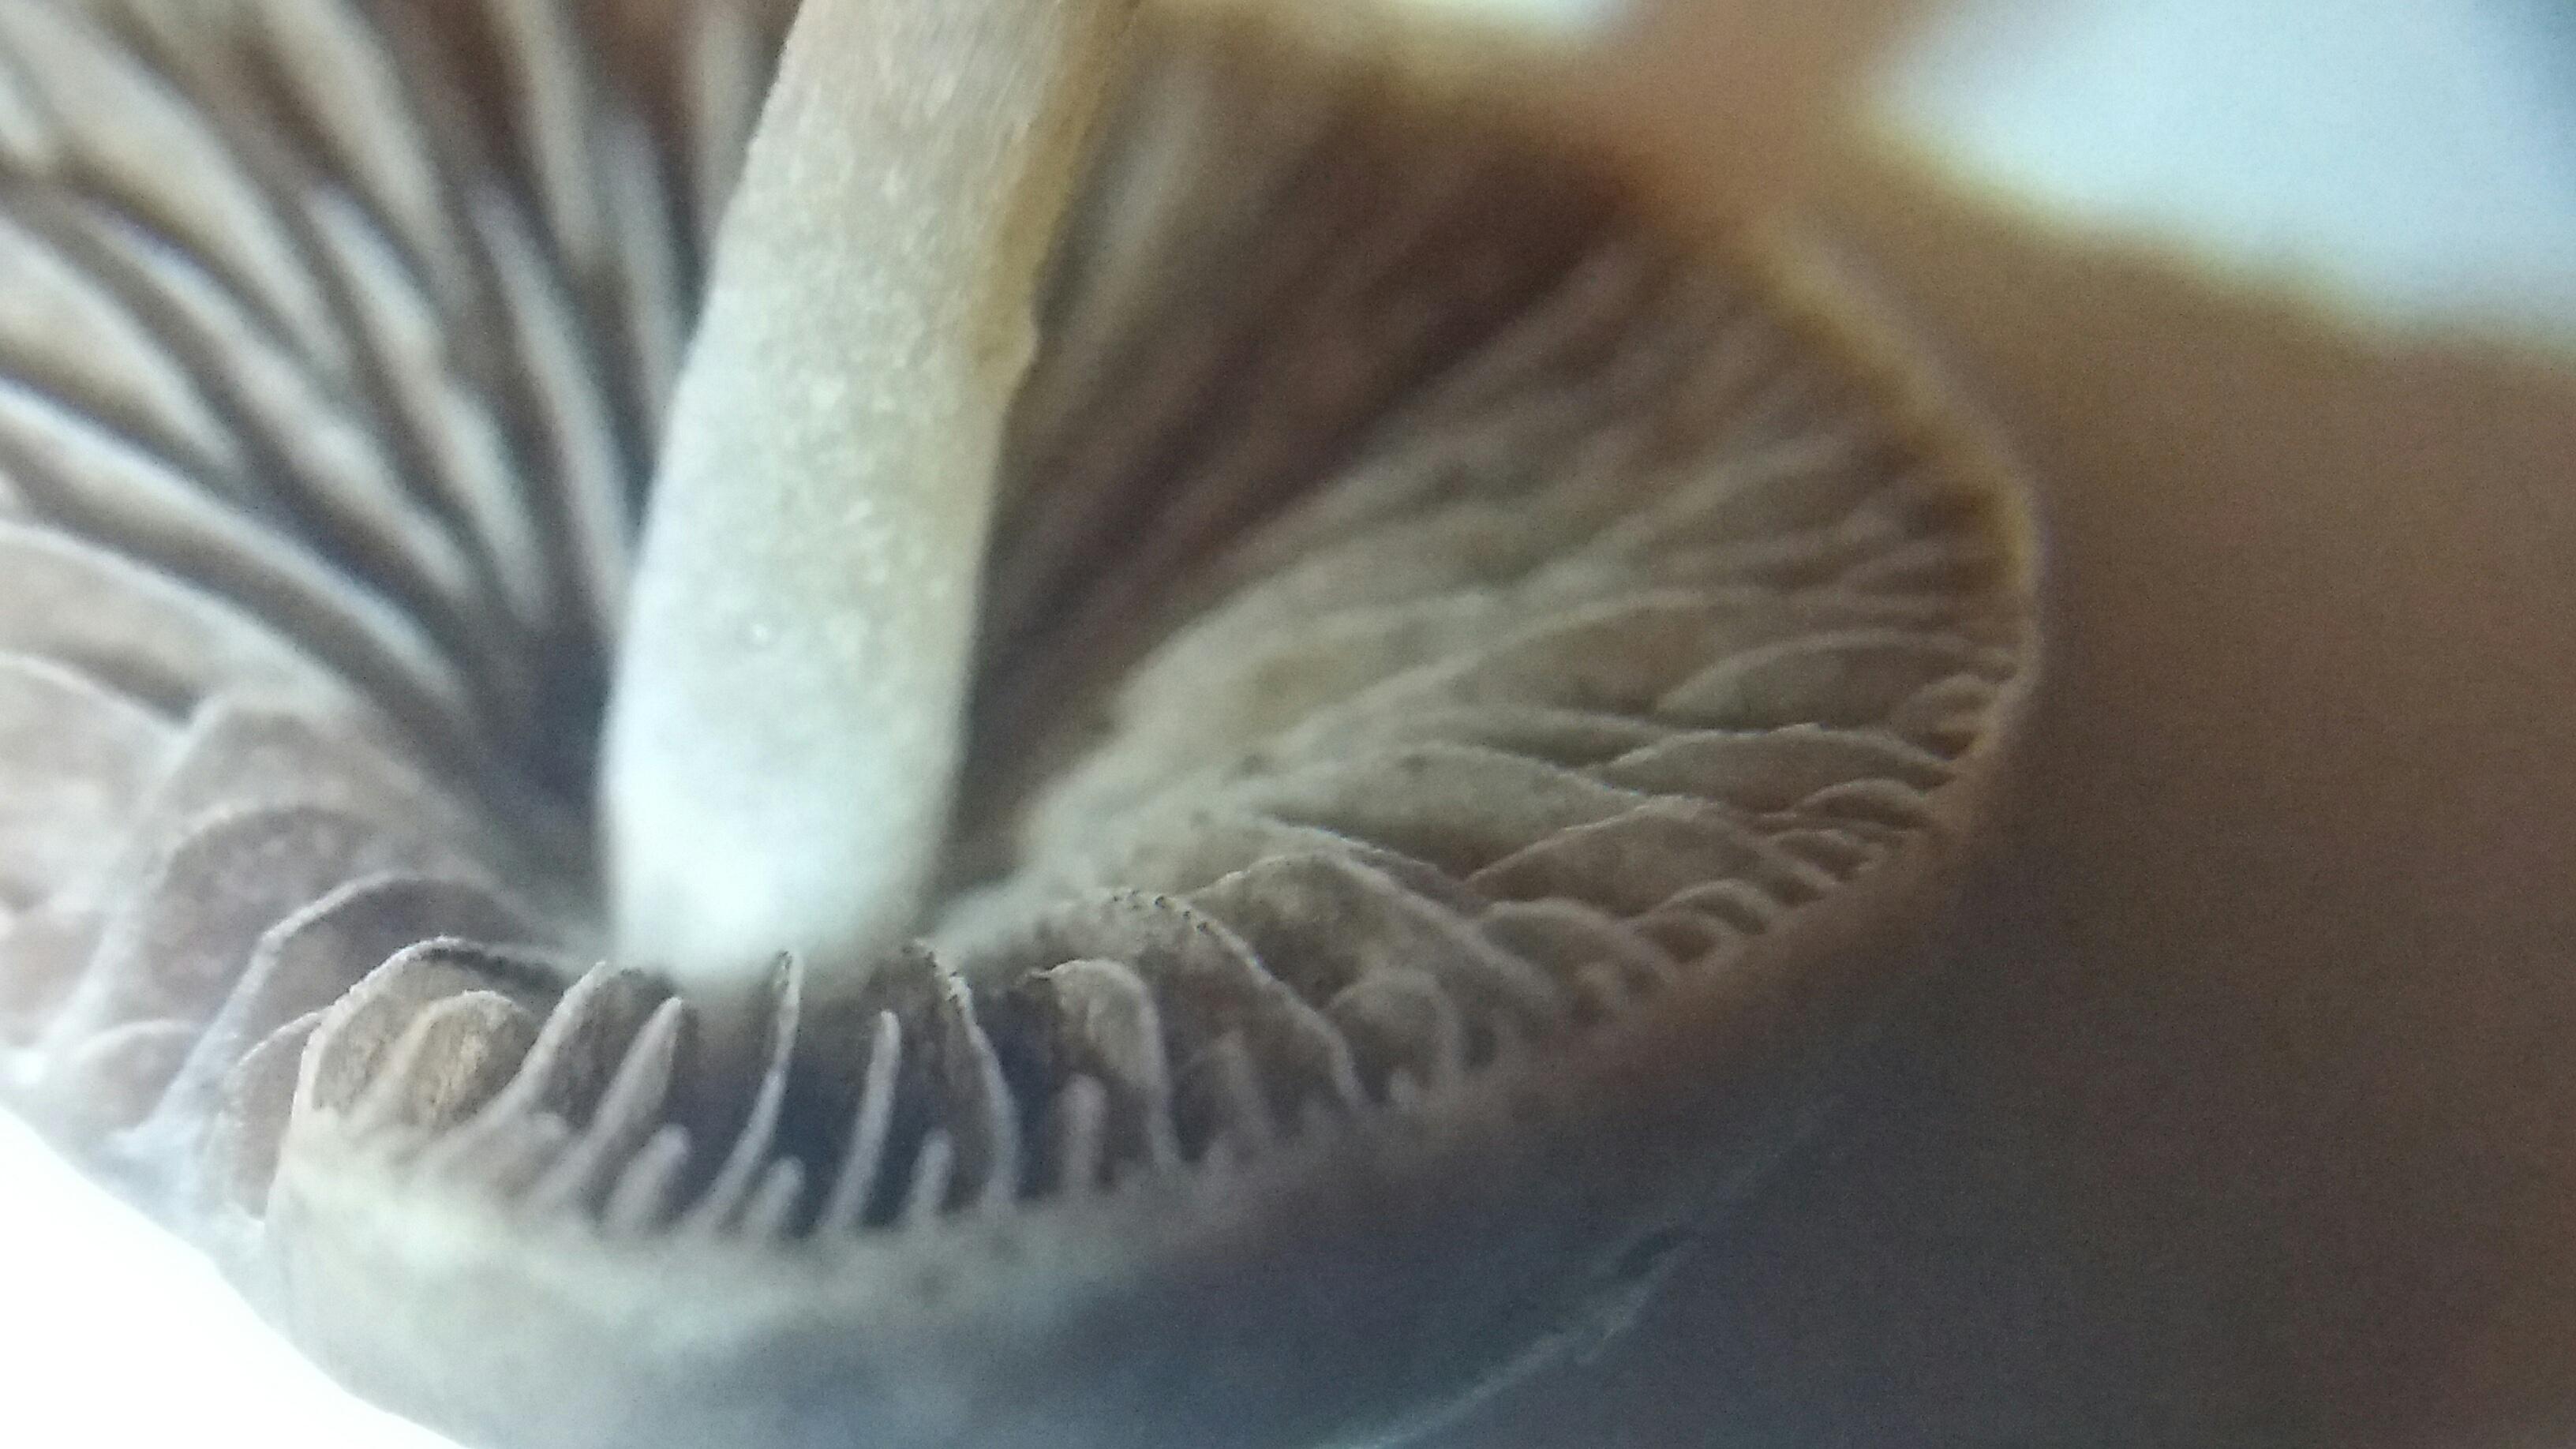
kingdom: Fungi
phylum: Basidiomycota
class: Agaricomycetes
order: Agaricales
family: Bolbitiaceae
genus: Panaeolina
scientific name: Panaeolina foenisecii
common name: høslætsvamp
